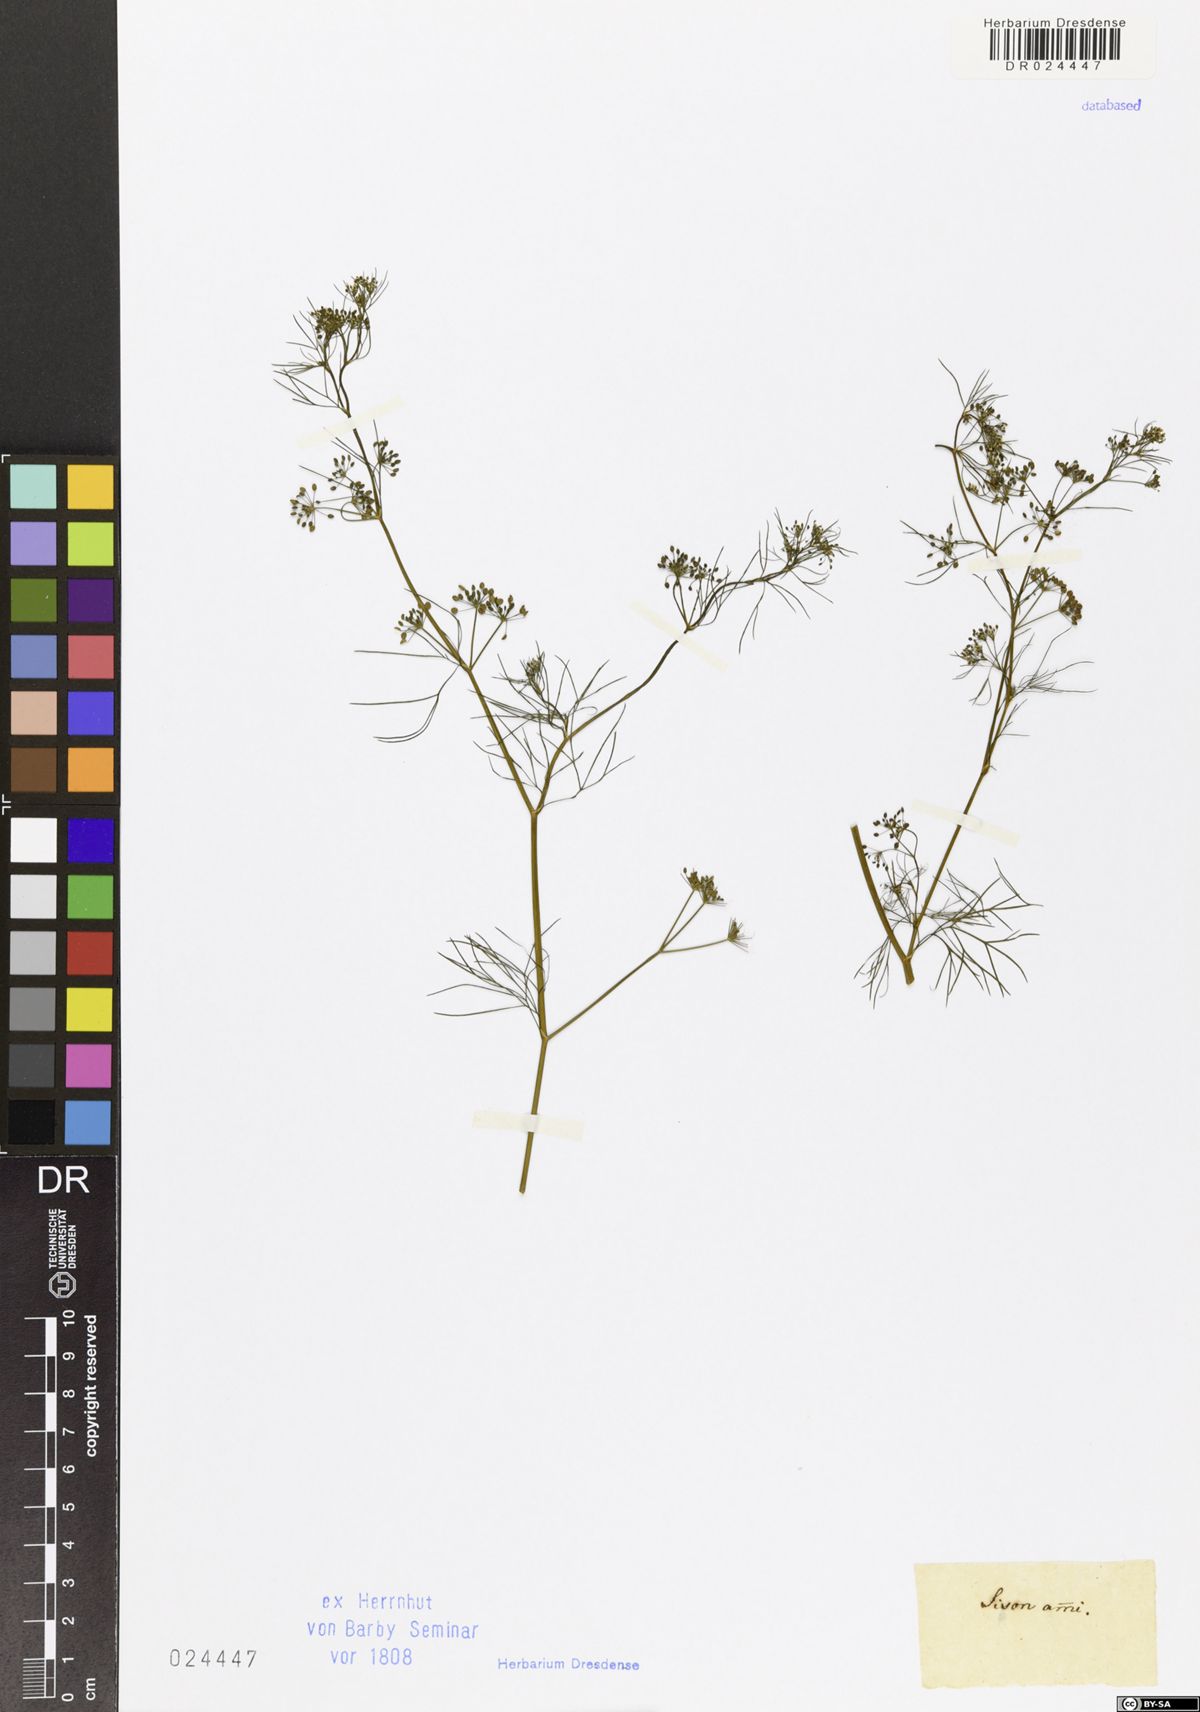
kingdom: Plantae
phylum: Tracheophyta
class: Magnoliopsida
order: Apiales
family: Apiaceae
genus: Trachyspermum
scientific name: Trachyspermum ammi
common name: Ajowan
